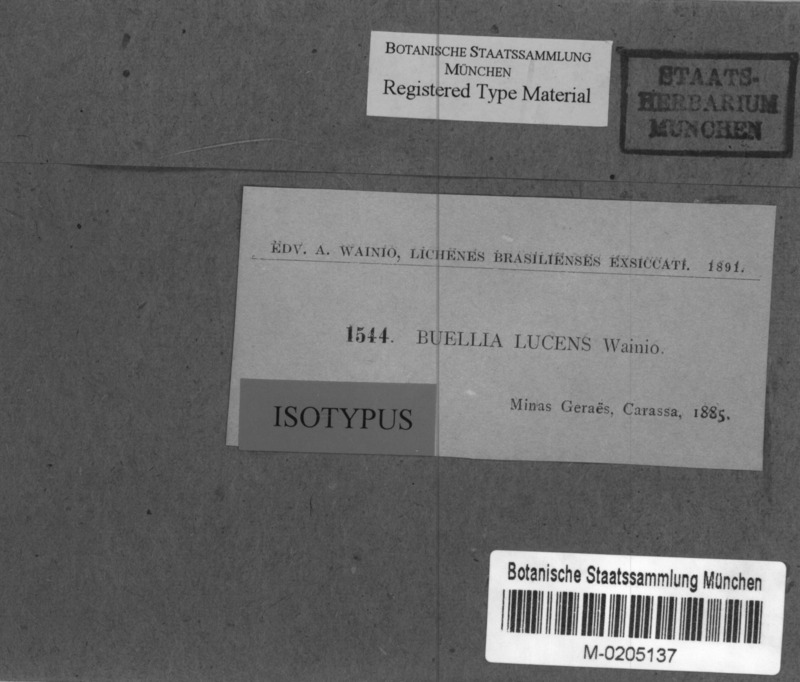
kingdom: Fungi
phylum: Ascomycota
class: Lecanoromycetes
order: Caliciales
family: Caliciaceae
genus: Buellia
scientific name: Buellia
